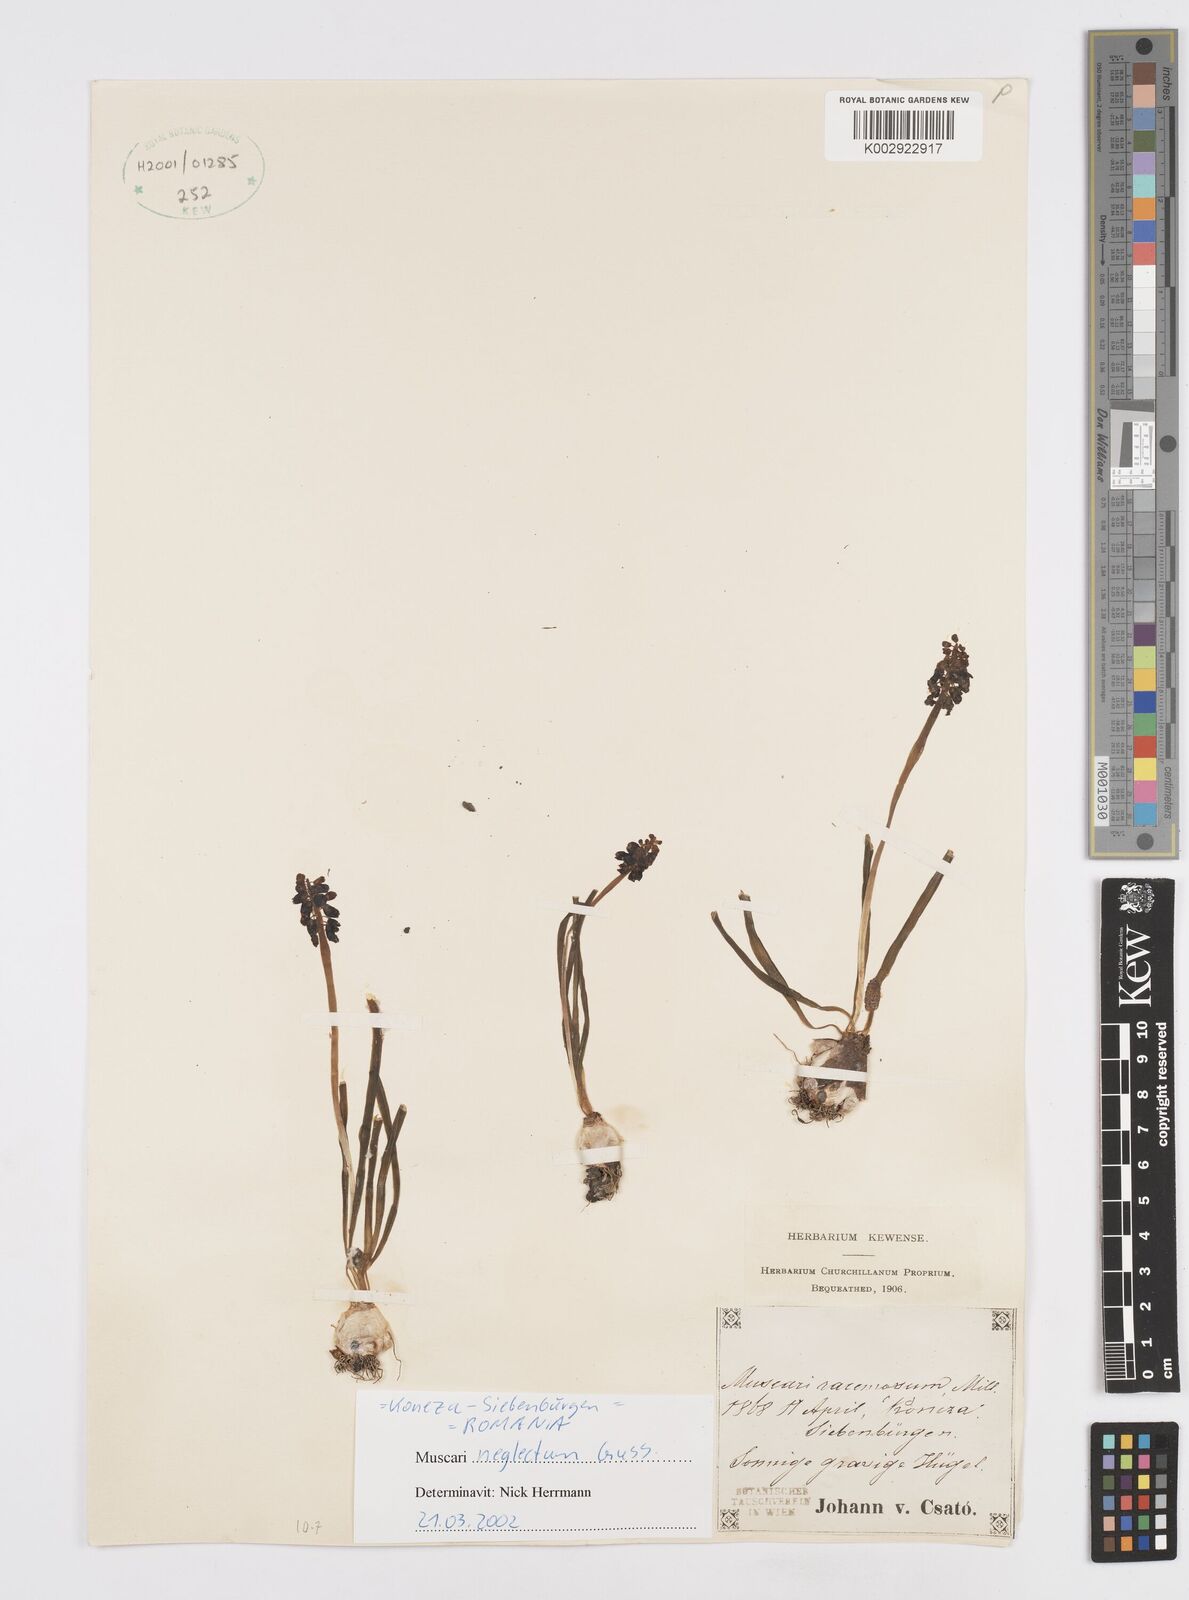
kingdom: Plantae
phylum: Tracheophyta
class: Liliopsida
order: Asparagales
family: Asparagaceae
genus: Muscarimia
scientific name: Muscarimia muscari
